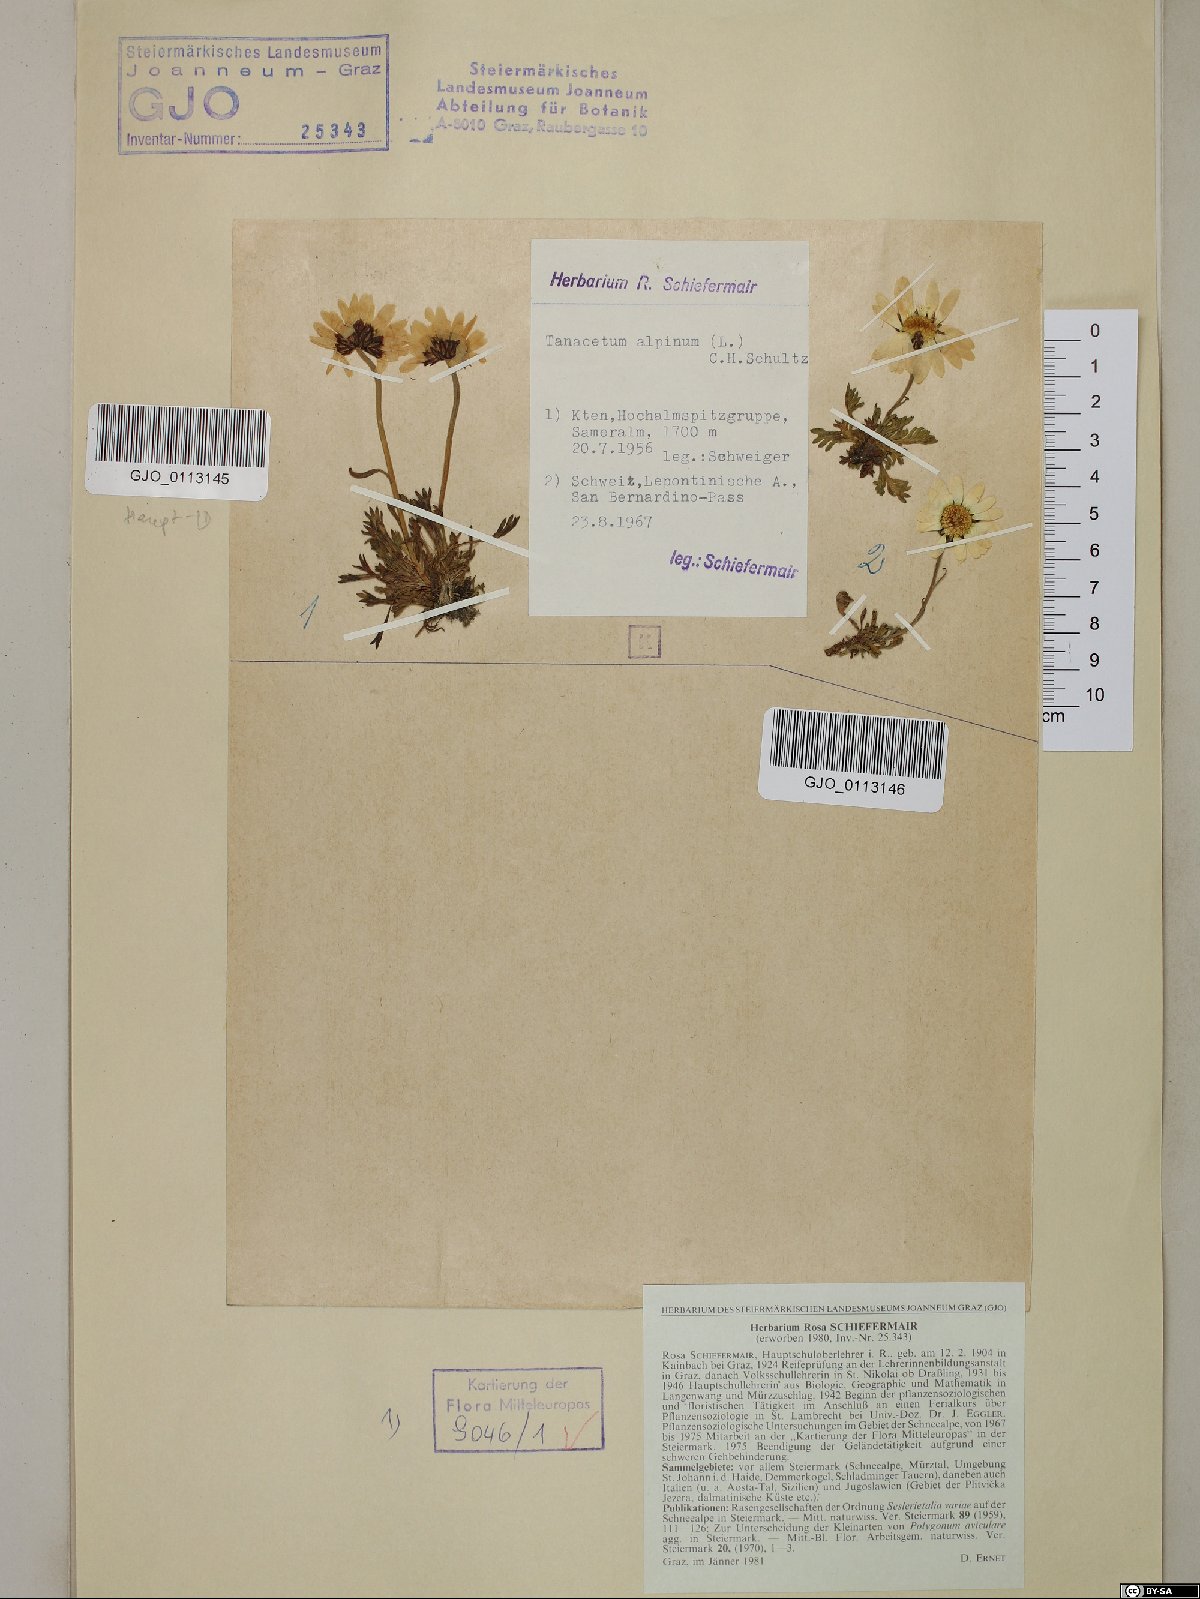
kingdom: Plantae
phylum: Tracheophyta
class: Magnoliopsida
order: Asterales
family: Asteraceae
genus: Leucanthemopsis
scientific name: Leucanthemopsis alpina
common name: Alpine moon daisy
